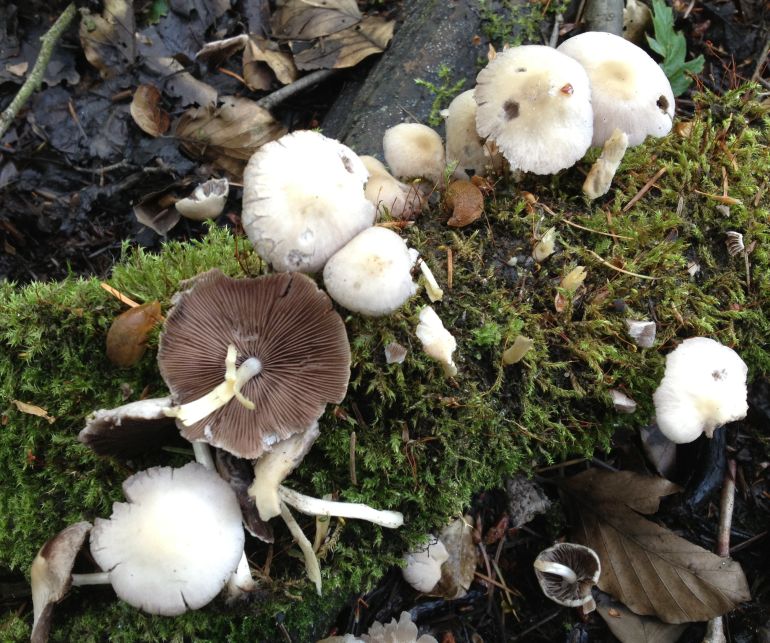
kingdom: Fungi
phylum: Basidiomycota
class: Agaricomycetes
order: Agaricales
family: Psathyrellaceae
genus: Candolleomyces
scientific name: Candolleomyces candolleanus
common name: Candolles mørkhat
